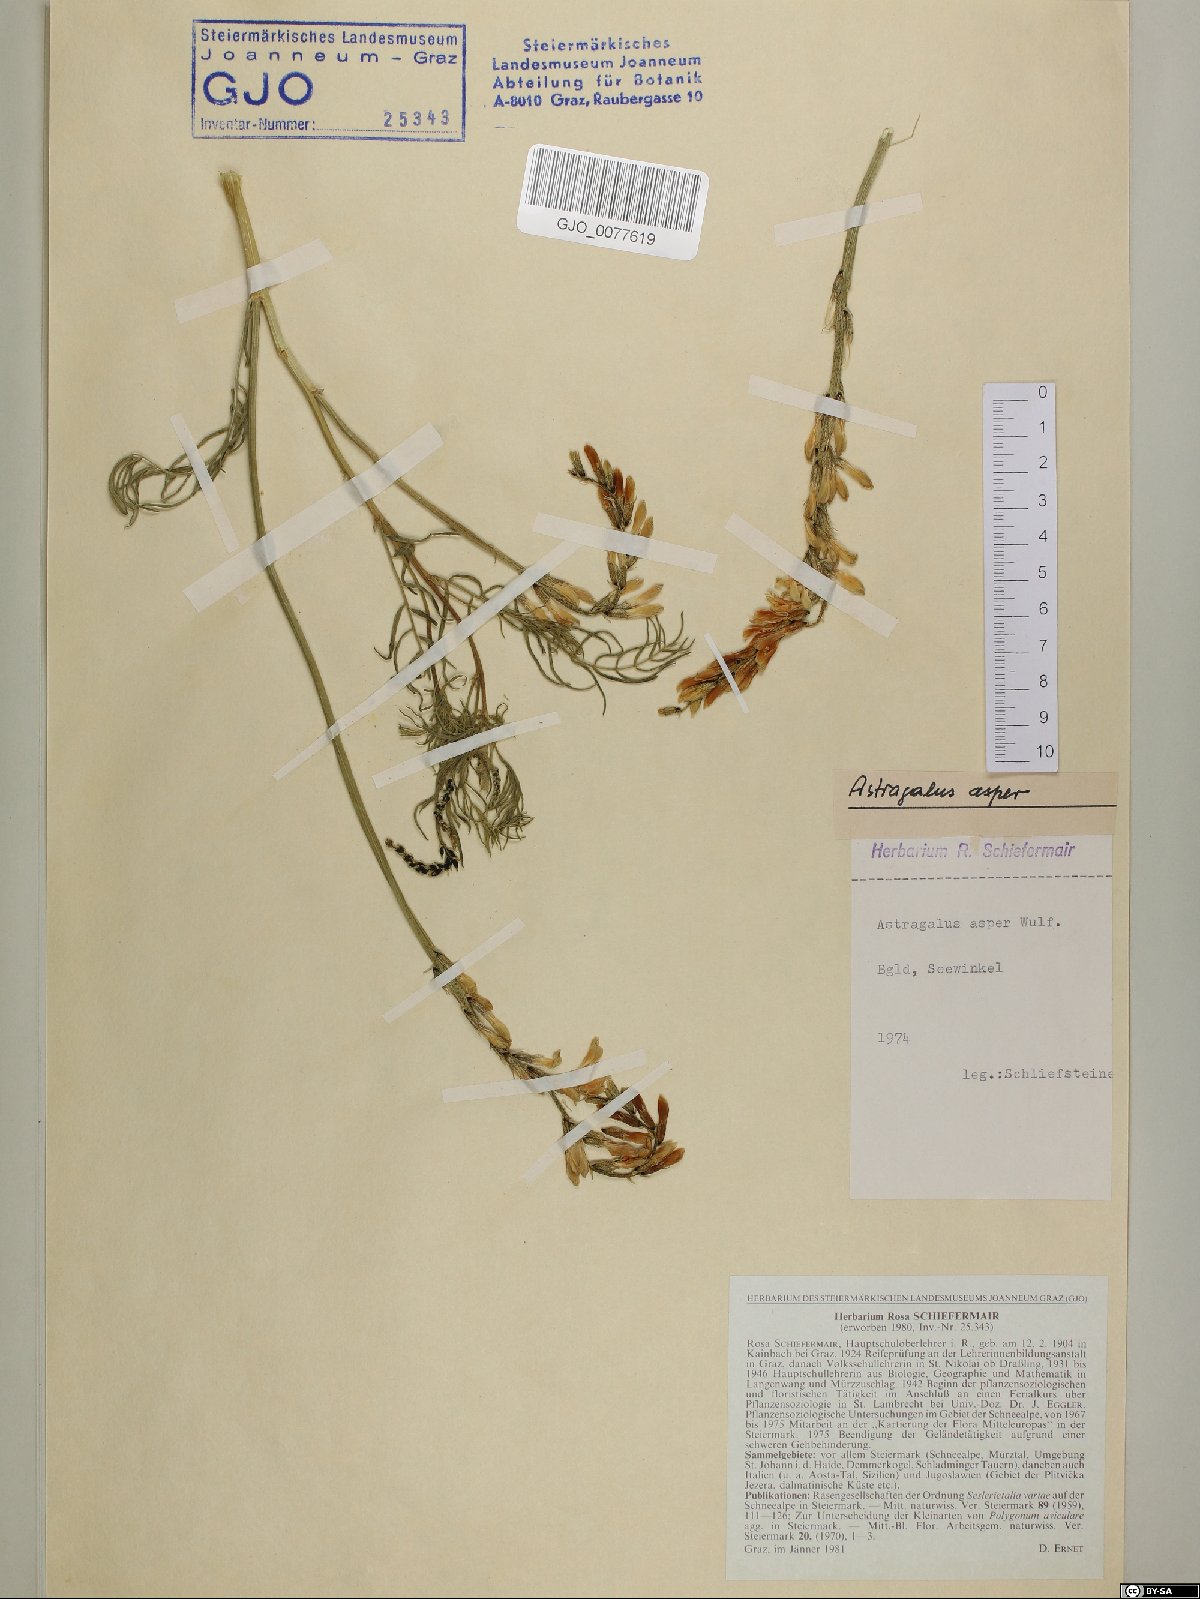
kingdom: Plantae
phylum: Tracheophyta
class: Magnoliopsida
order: Fabales
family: Fabaceae
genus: Astragalus
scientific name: Astragalus asper
